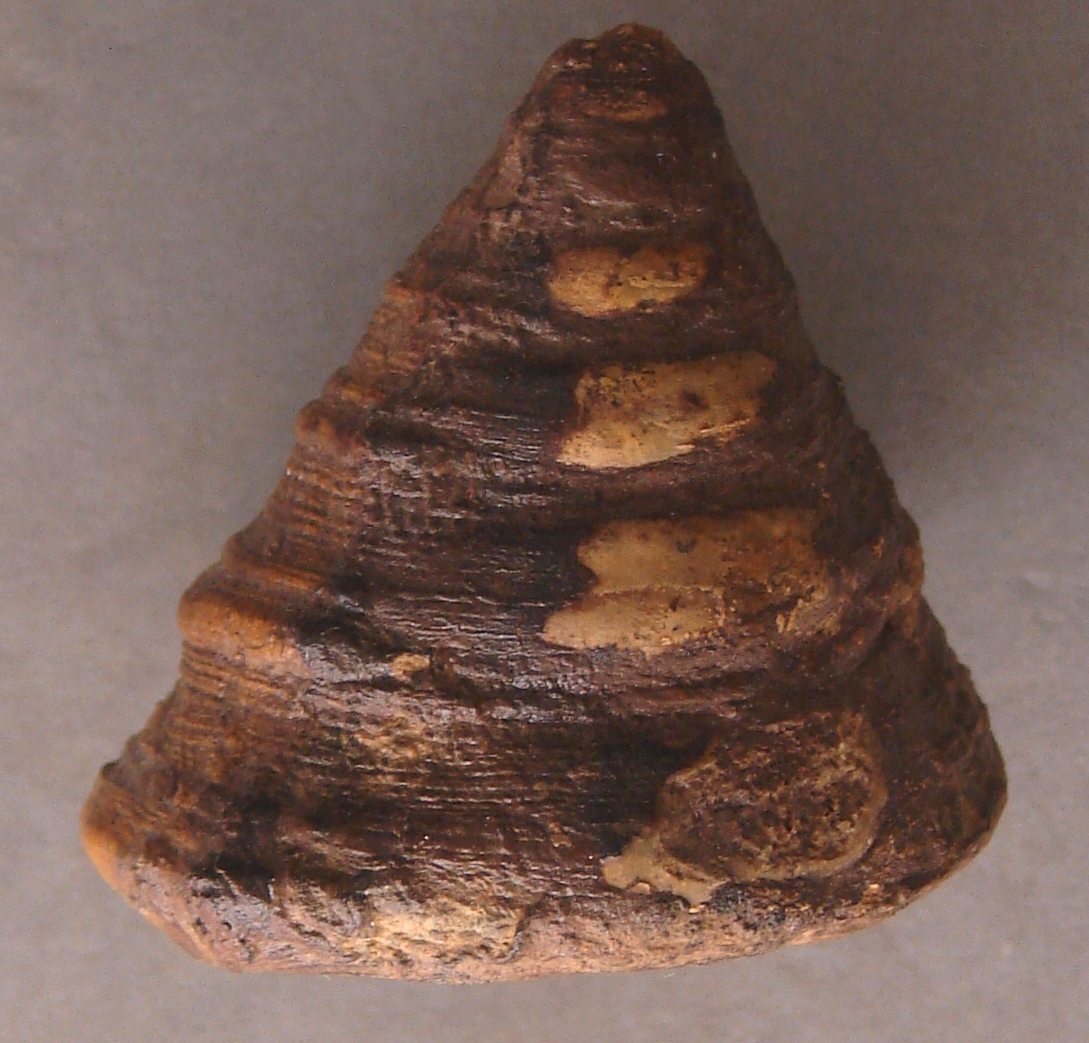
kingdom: Animalia
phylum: Mollusca
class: Gastropoda
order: Pleurotomariida
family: Pleurotomariidae
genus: Pyrgotrochus
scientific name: Pyrgotrochus elongatus
